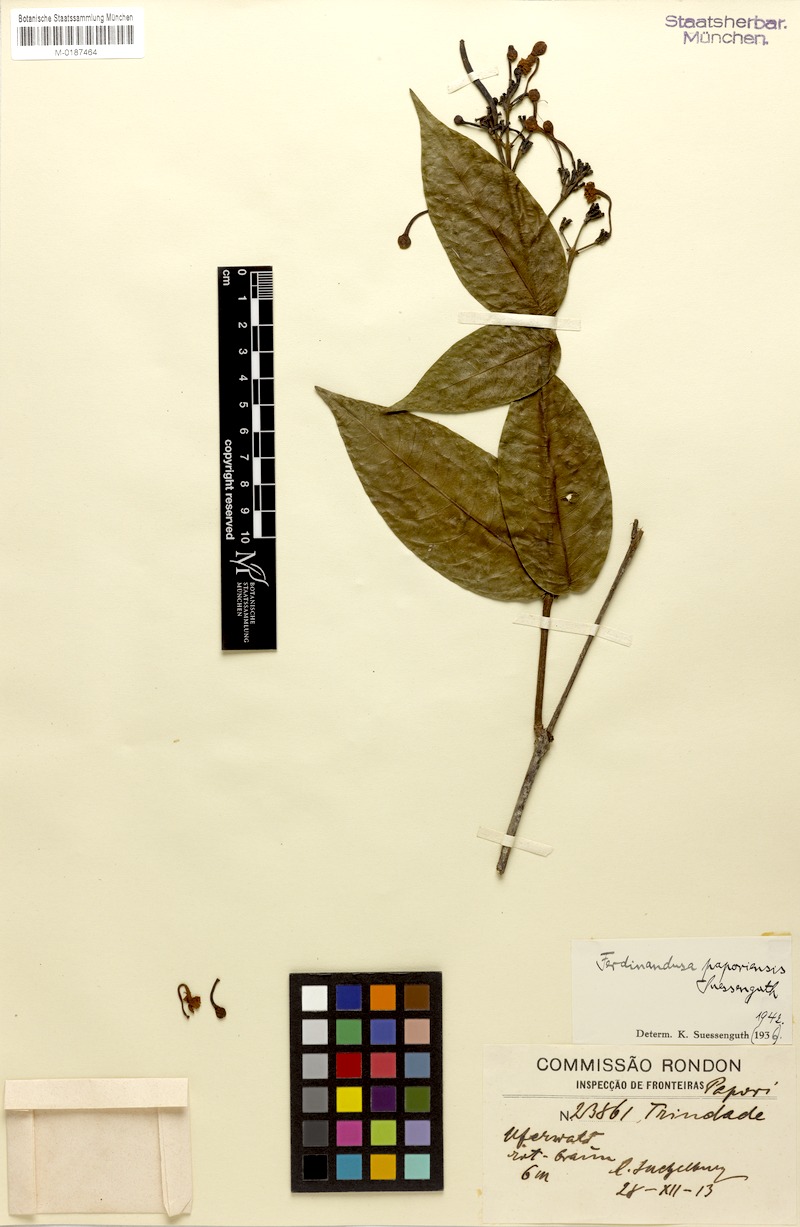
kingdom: Plantae
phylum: Tracheophyta
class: Magnoliopsida
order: Gentianales
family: Rubiaceae
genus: Ferdinandusa
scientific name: Ferdinandusa paporiensis
